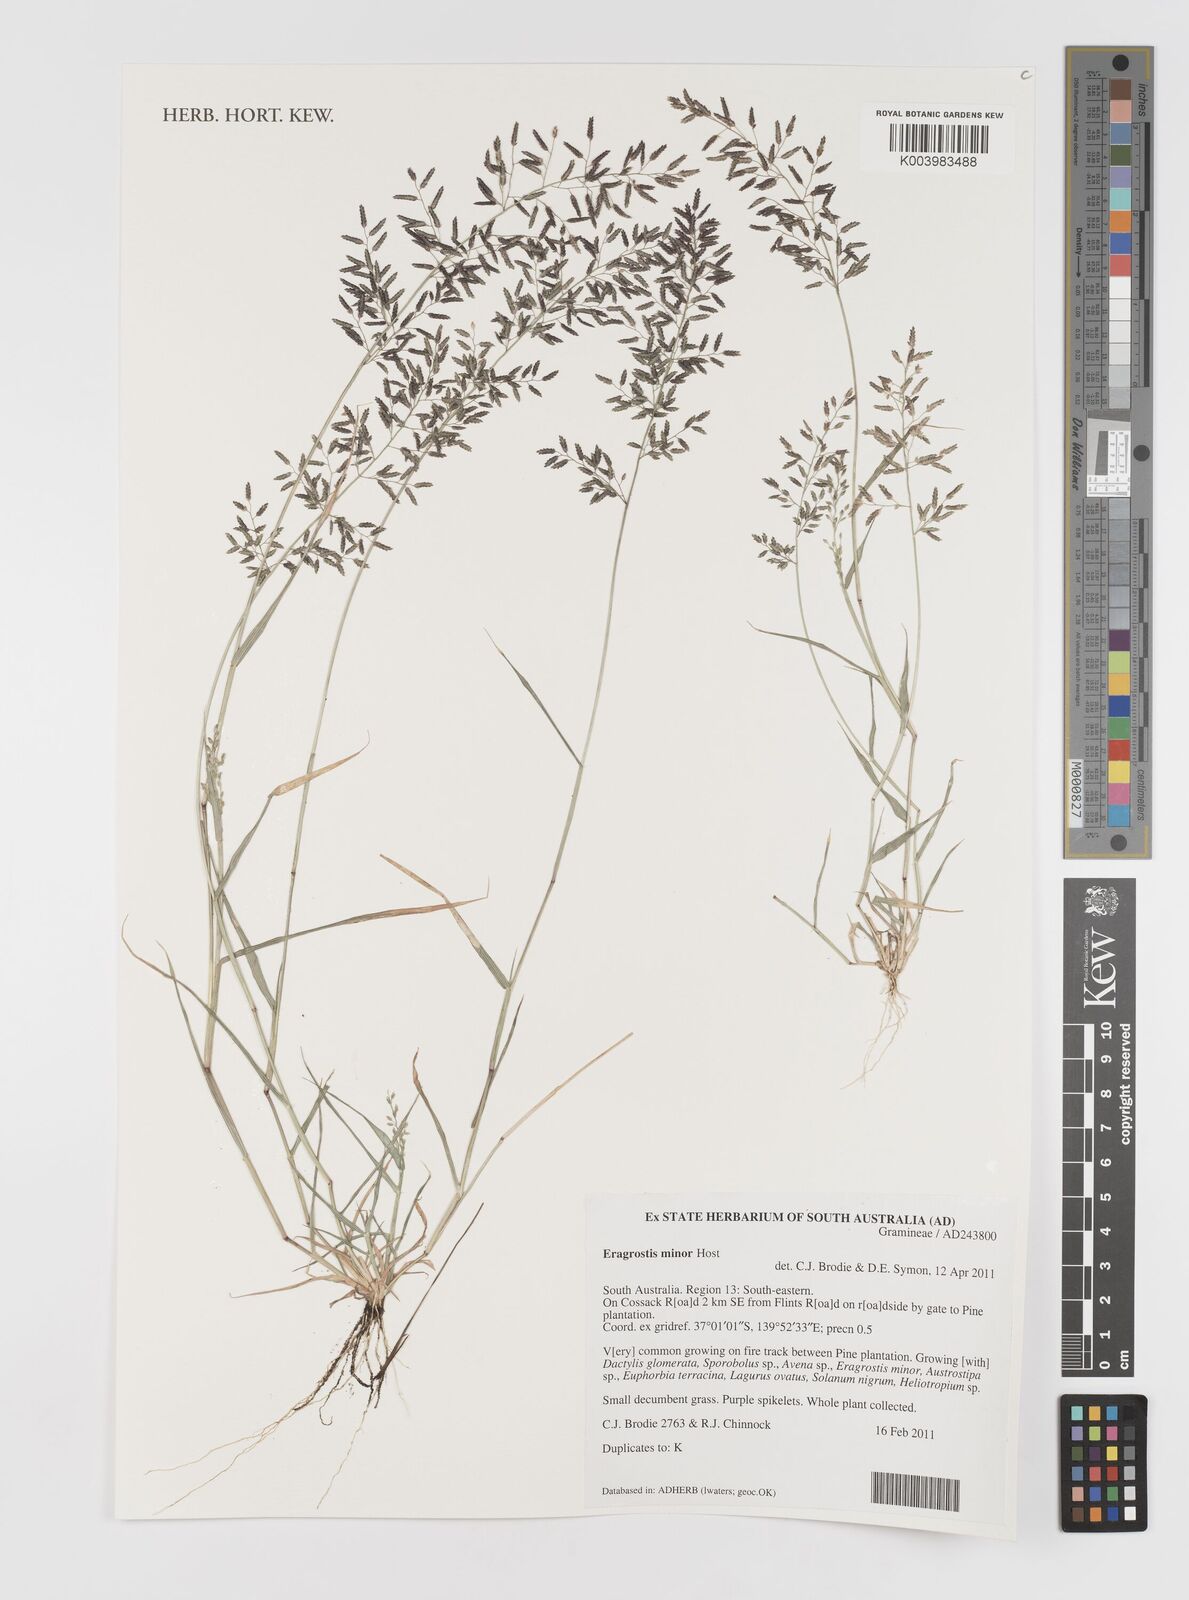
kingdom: Plantae
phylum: Tracheophyta
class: Liliopsida
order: Poales
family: Poaceae
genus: Eragrostis
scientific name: Eragrostis minor
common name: Small love-grass
